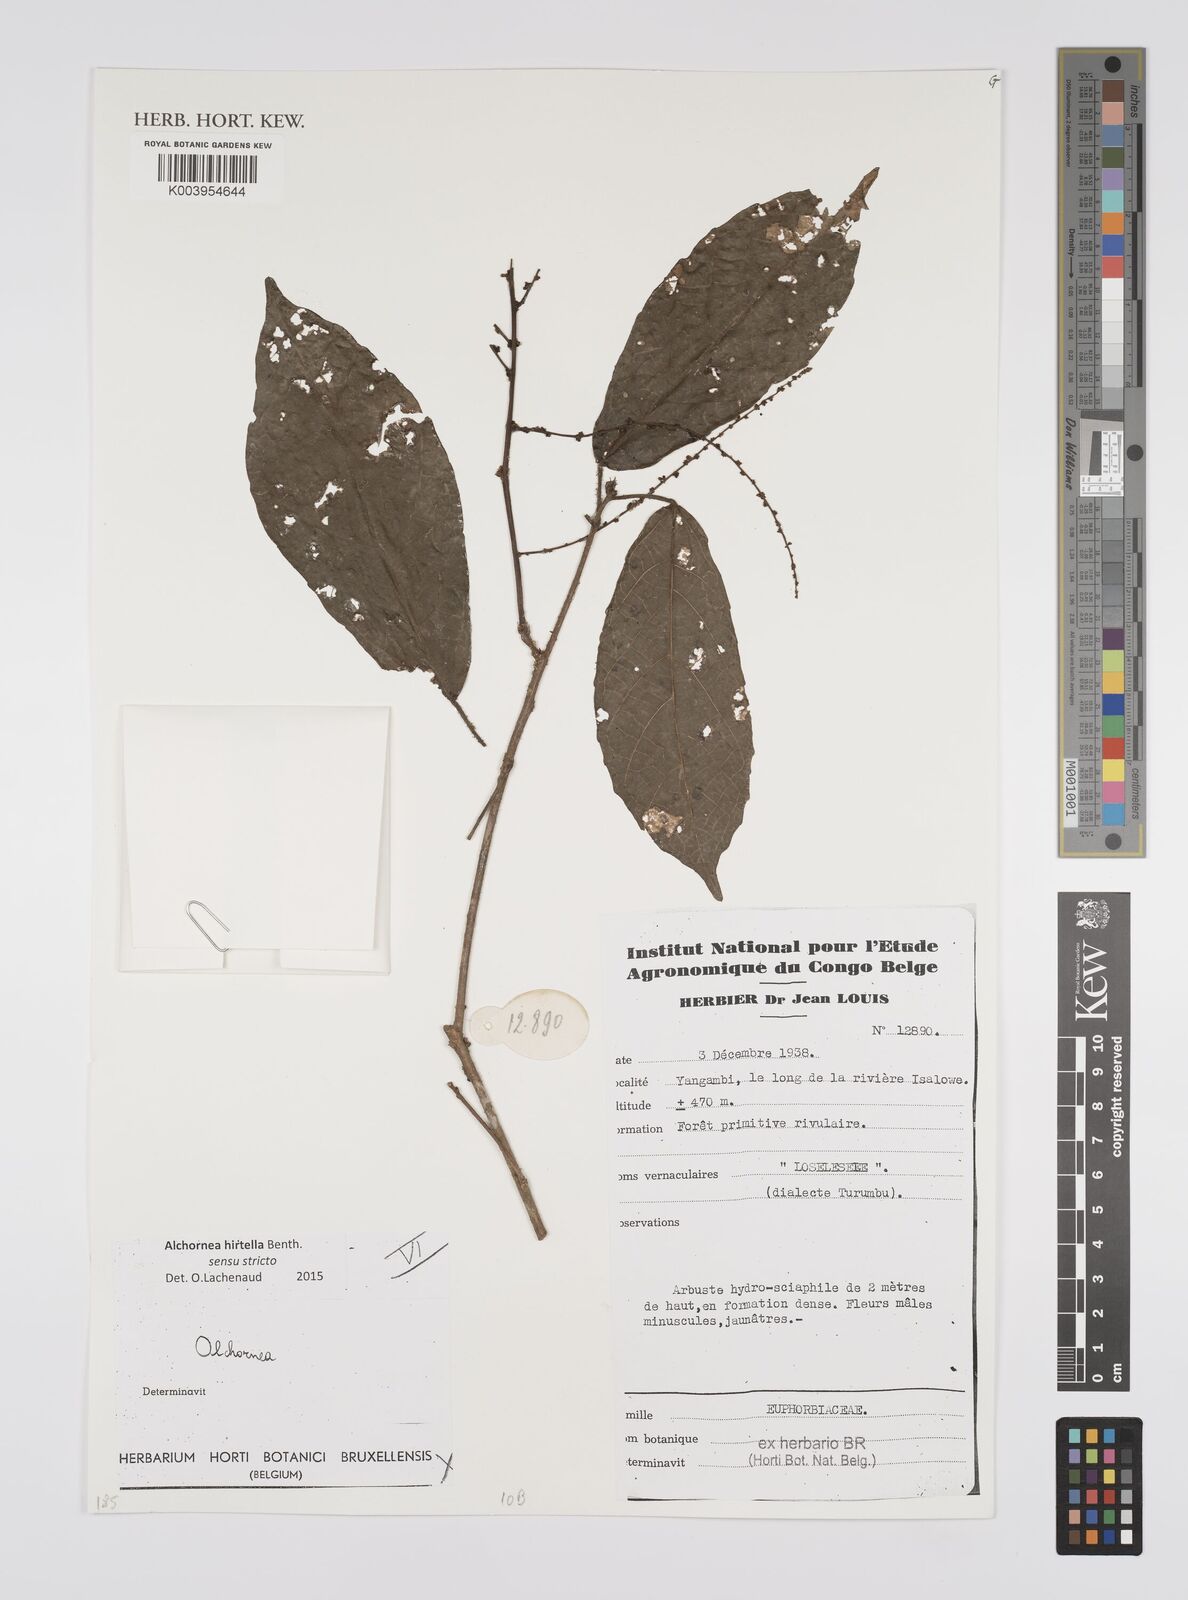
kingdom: Plantae
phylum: Tracheophyta
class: Magnoliopsida
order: Malpighiales
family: Euphorbiaceae
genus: Alchornea
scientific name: Alchornea hirtella
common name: Forest bead-string
